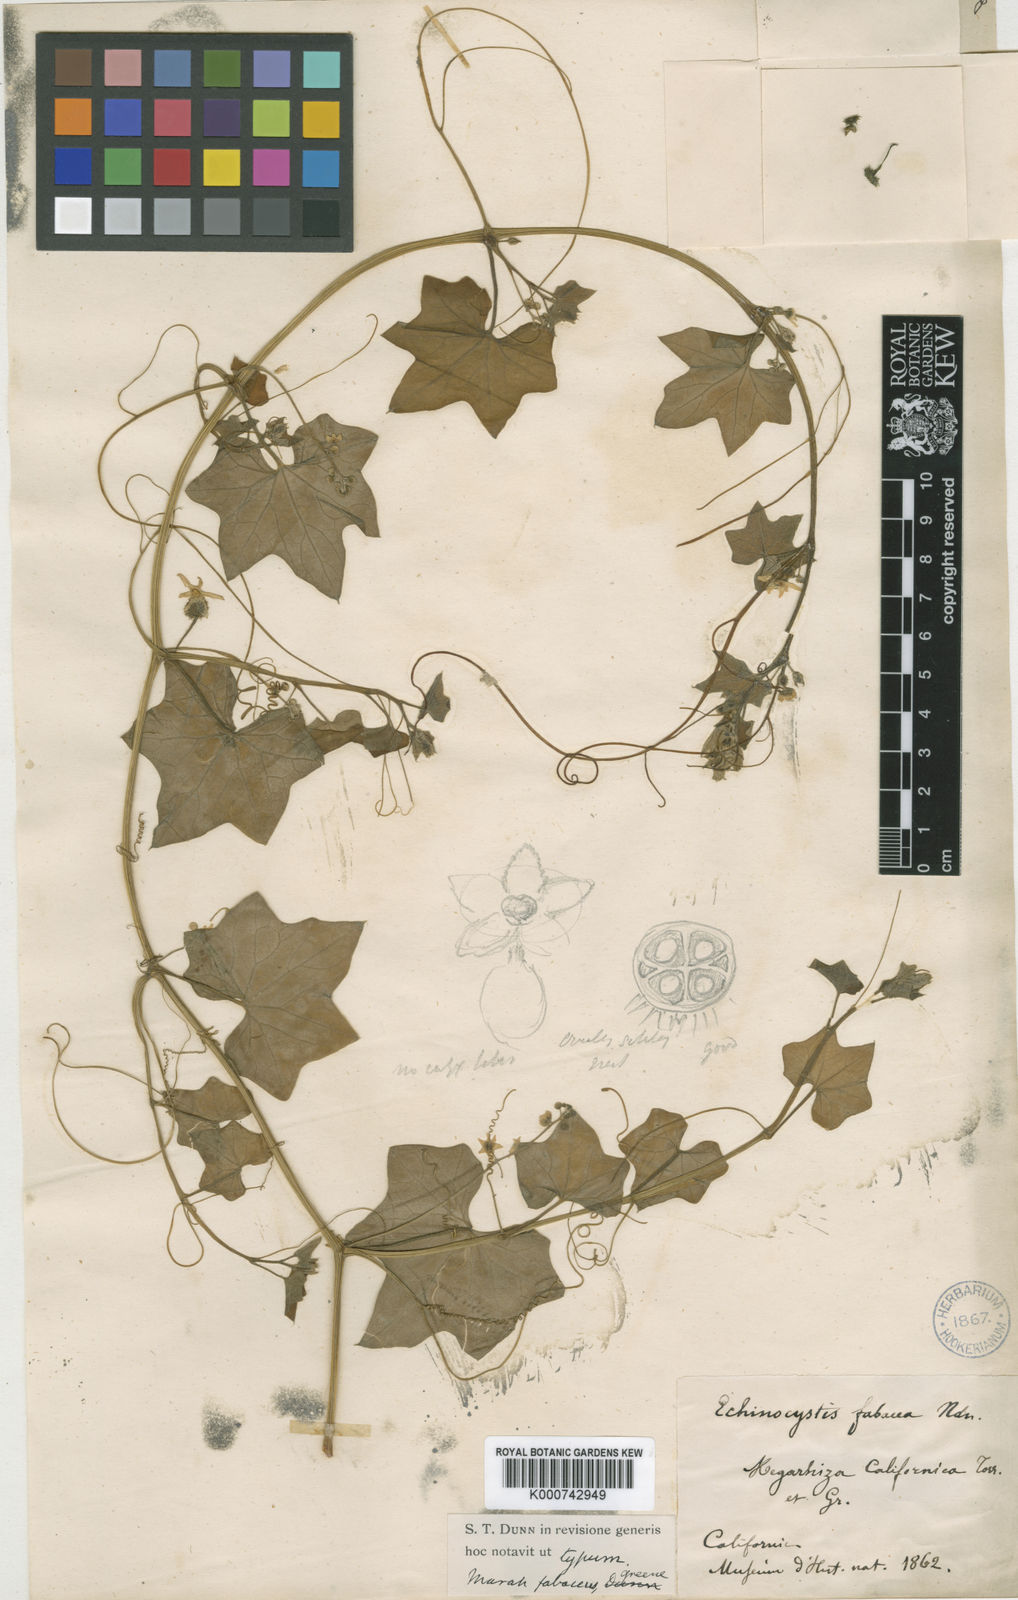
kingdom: Plantae
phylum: Tracheophyta
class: Magnoliopsida
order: Cucurbitales
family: Cucurbitaceae
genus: Marah
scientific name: Marah
